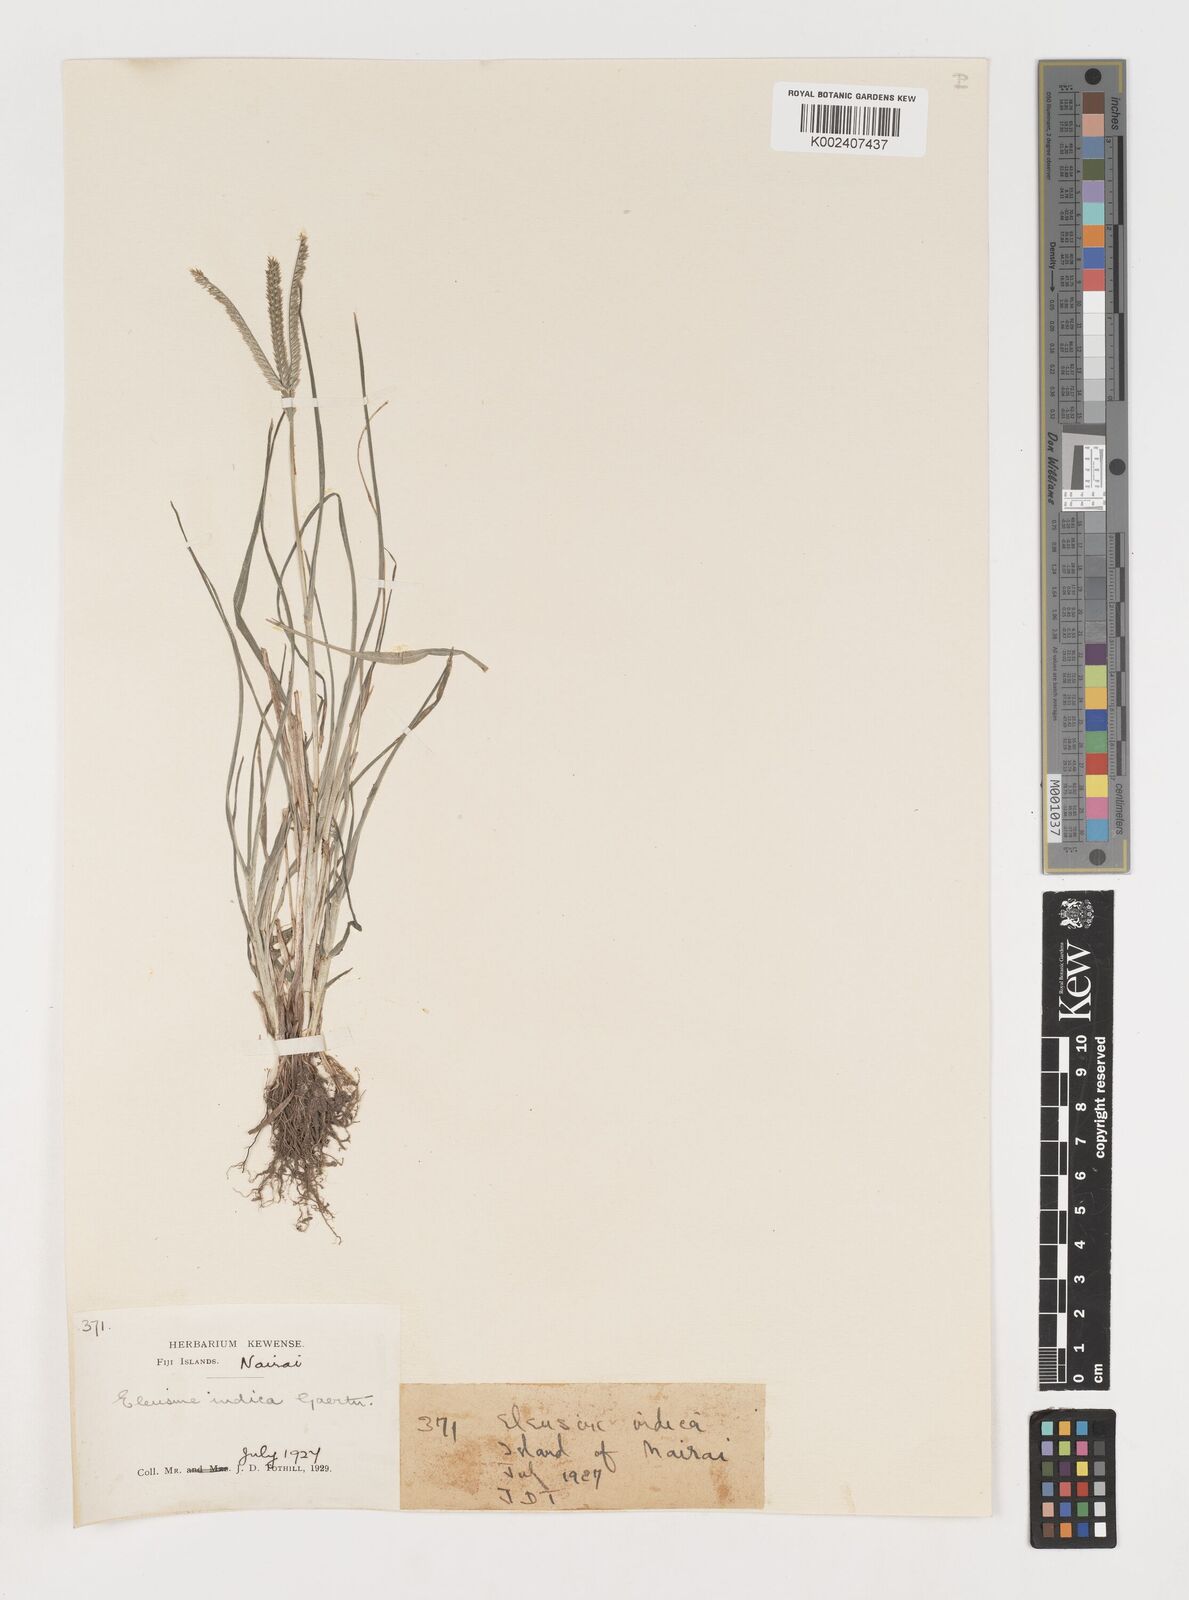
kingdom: Plantae
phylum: Tracheophyta
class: Liliopsida
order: Poales
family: Poaceae
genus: Eleusine
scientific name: Eleusine indica
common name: Yard-grass
